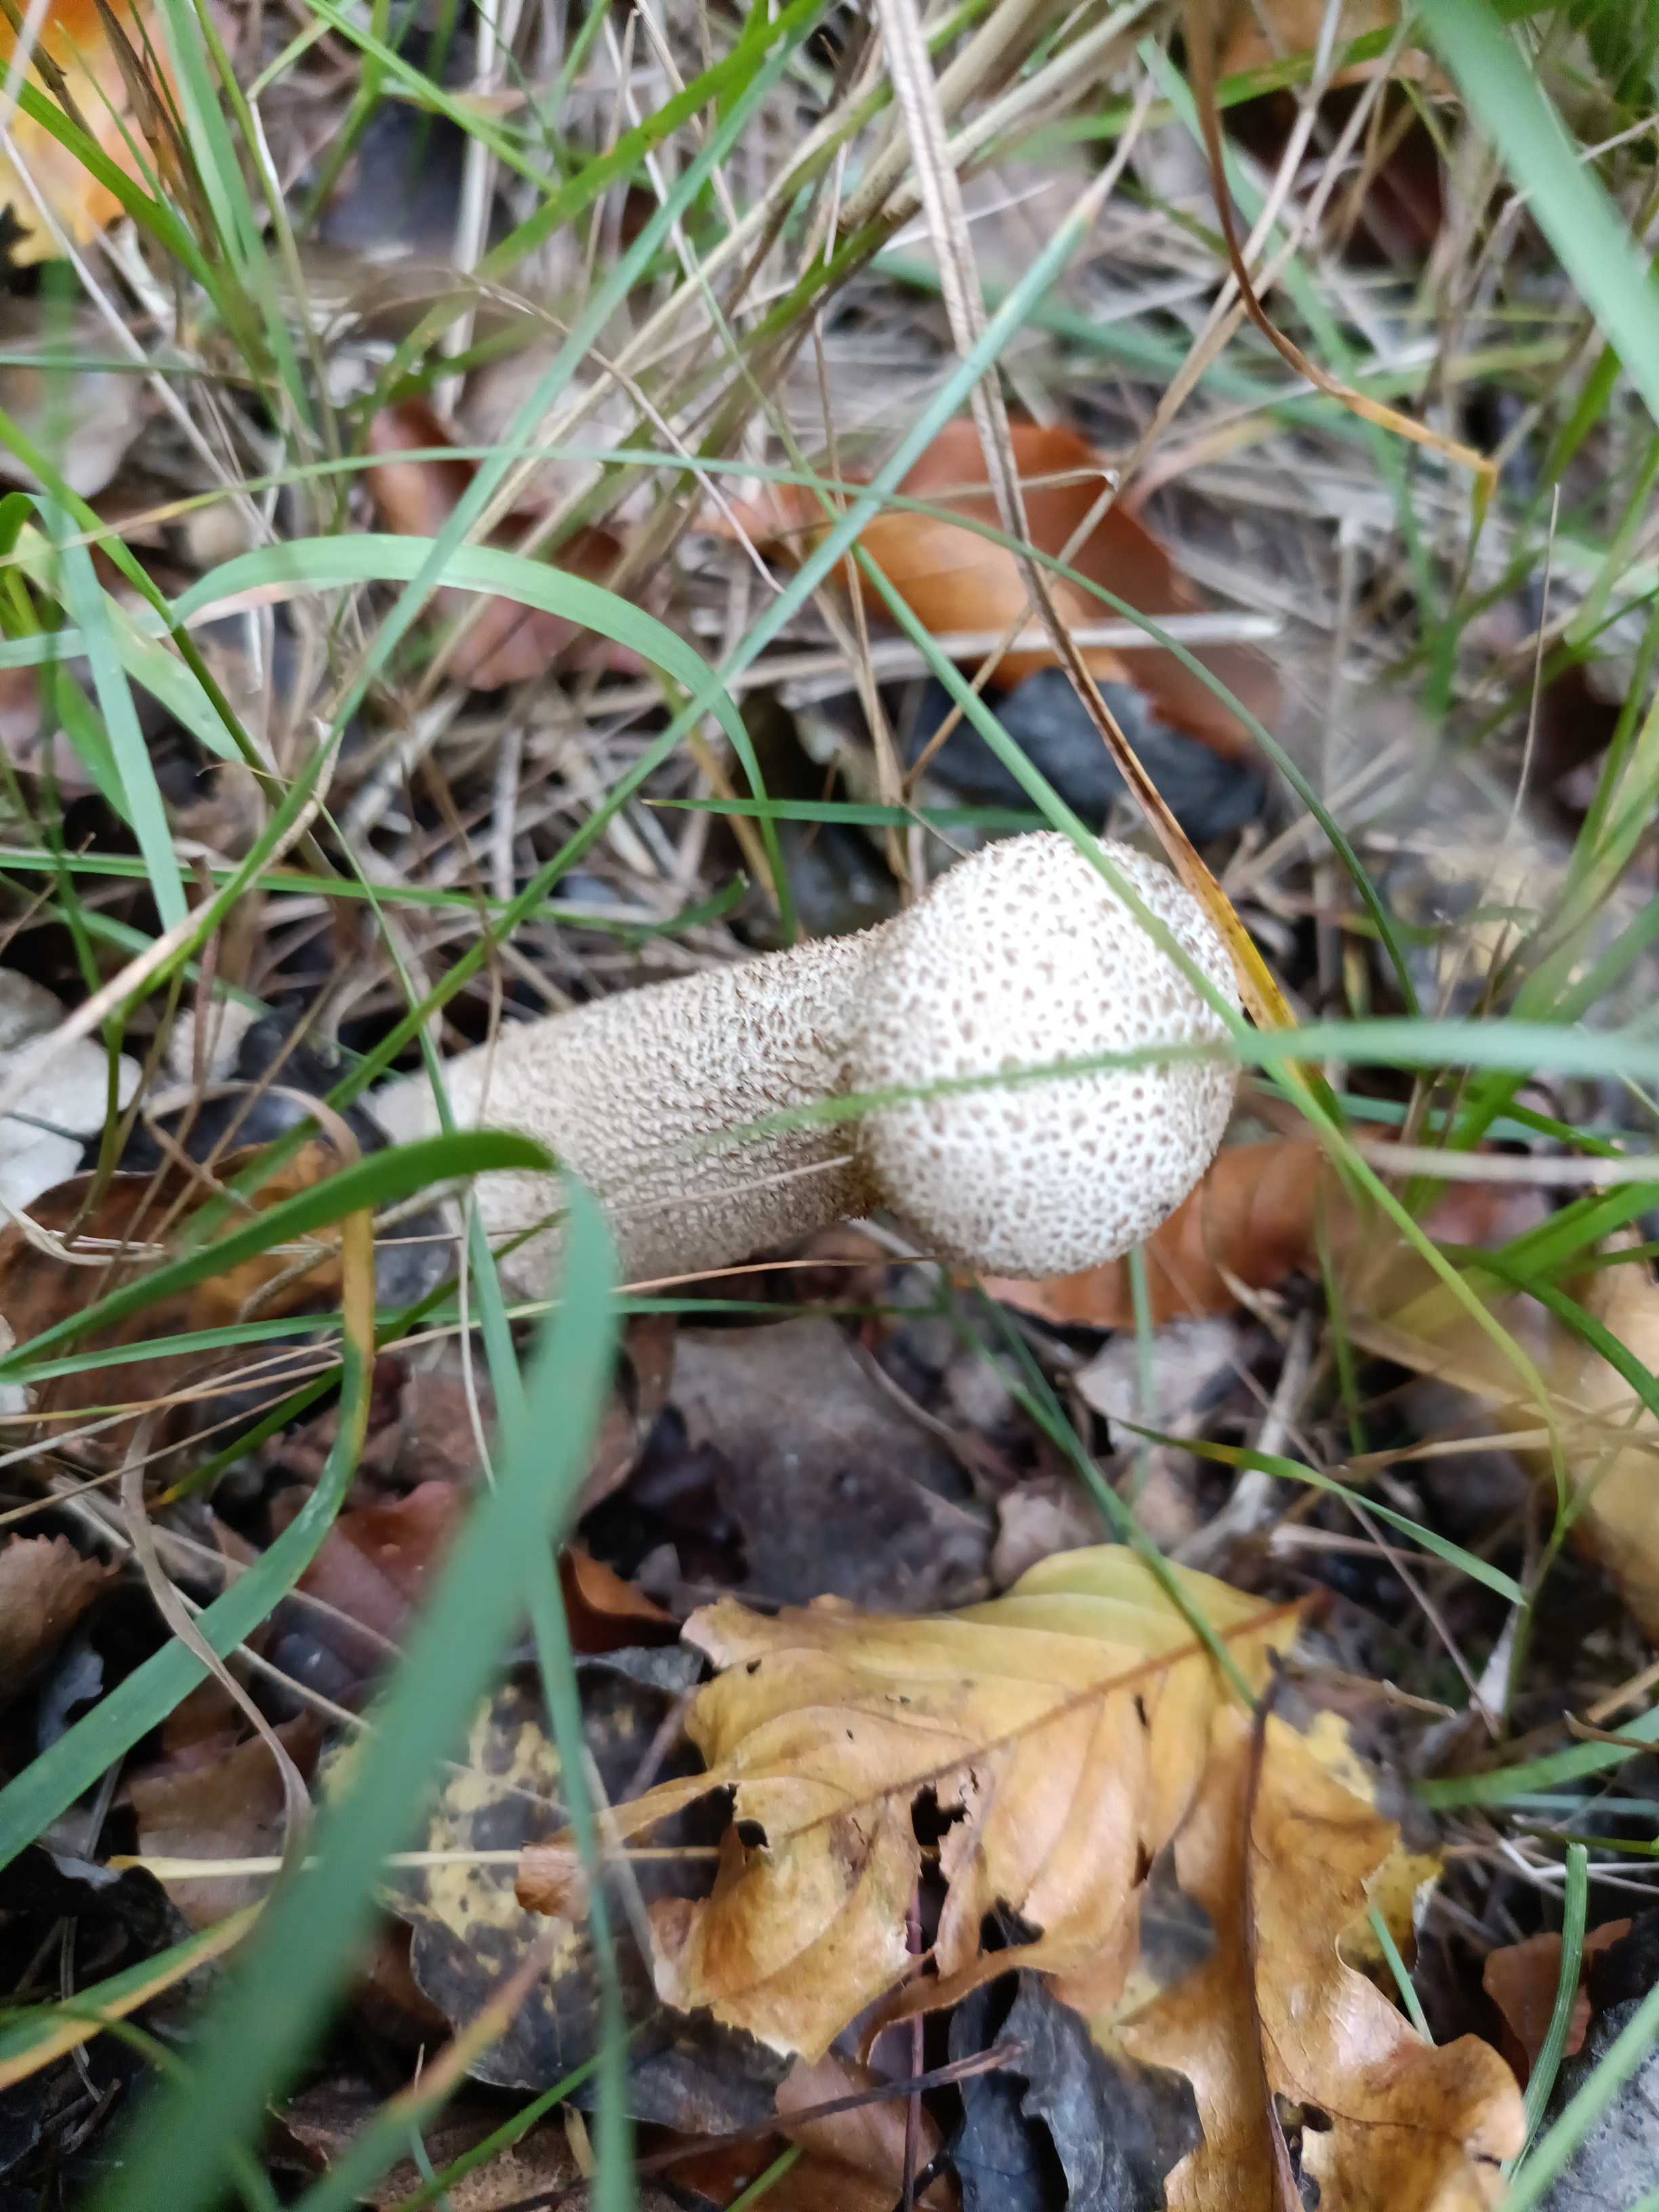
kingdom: Fungi
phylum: Basidiomycota
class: Agaricomycetes
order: Agaricales
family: Lycoperdaceae
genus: Lycoperdon
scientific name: Lycoperdon excipuliforme
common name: højstokket støvbold
